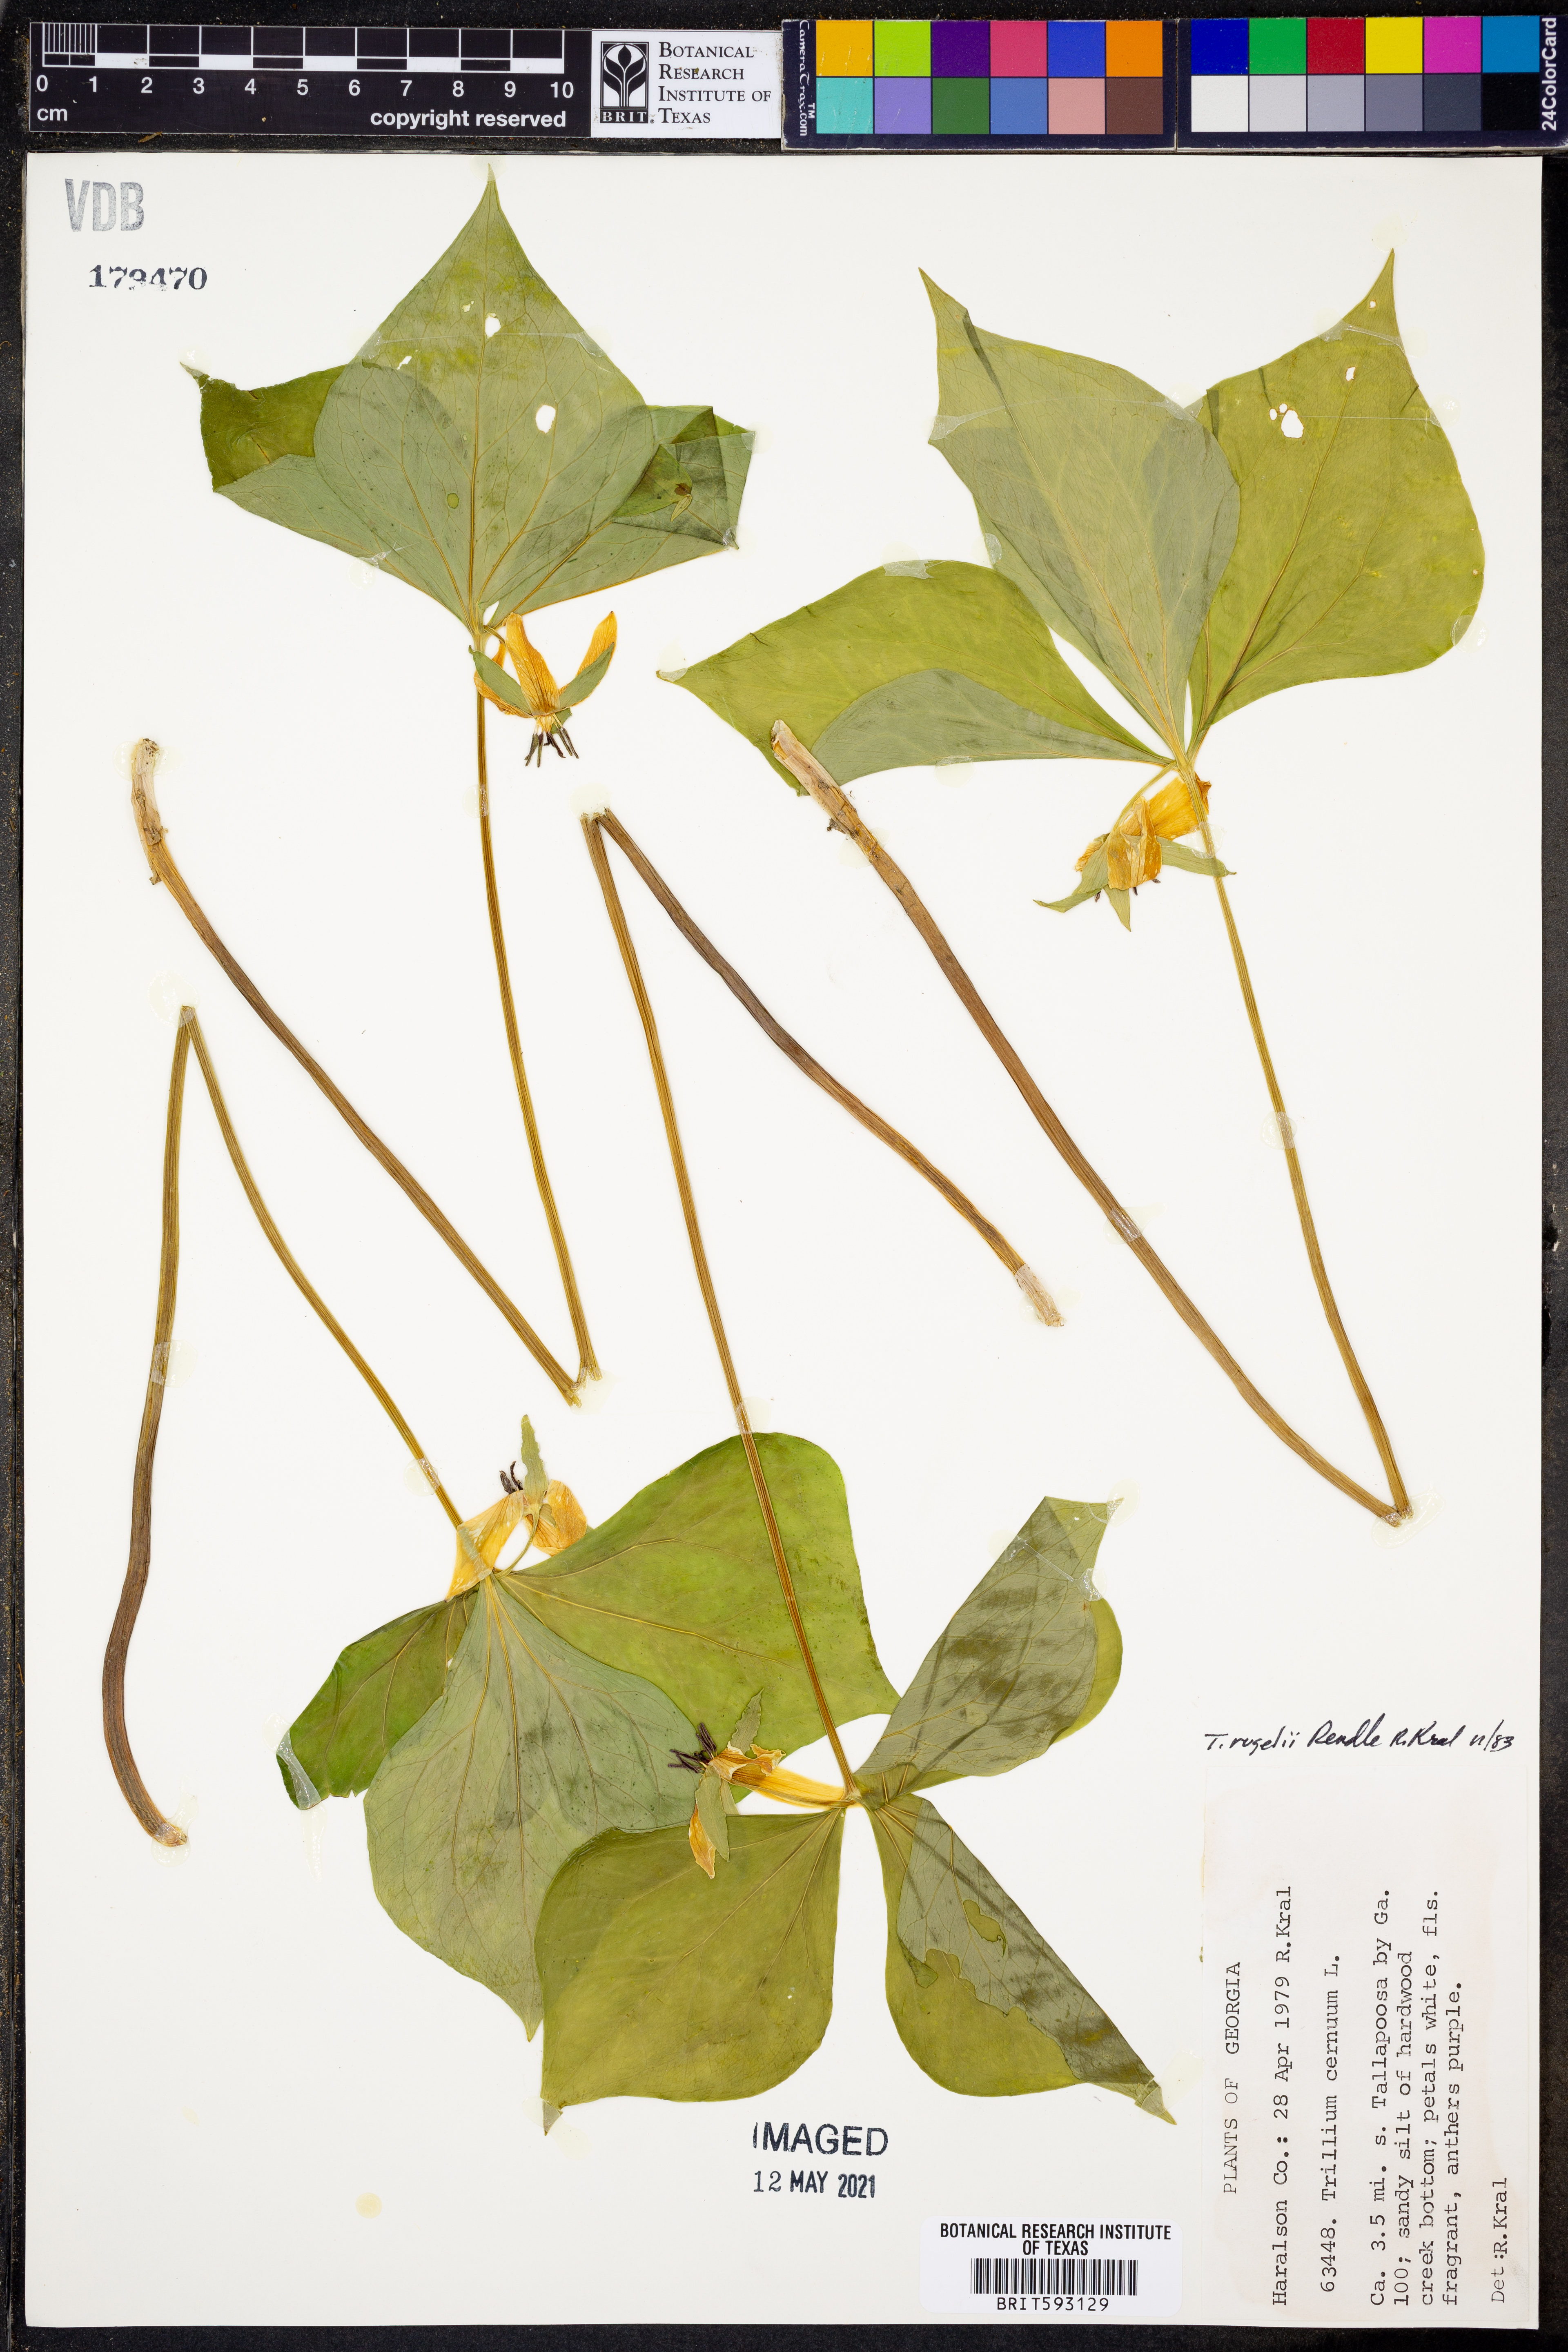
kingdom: Plantae
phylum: Tracheophyta
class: Liliopsida
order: Liliales
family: Melanthiaceae
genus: Trillium
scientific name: Trillium rugelii
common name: Ill-scented trillium
